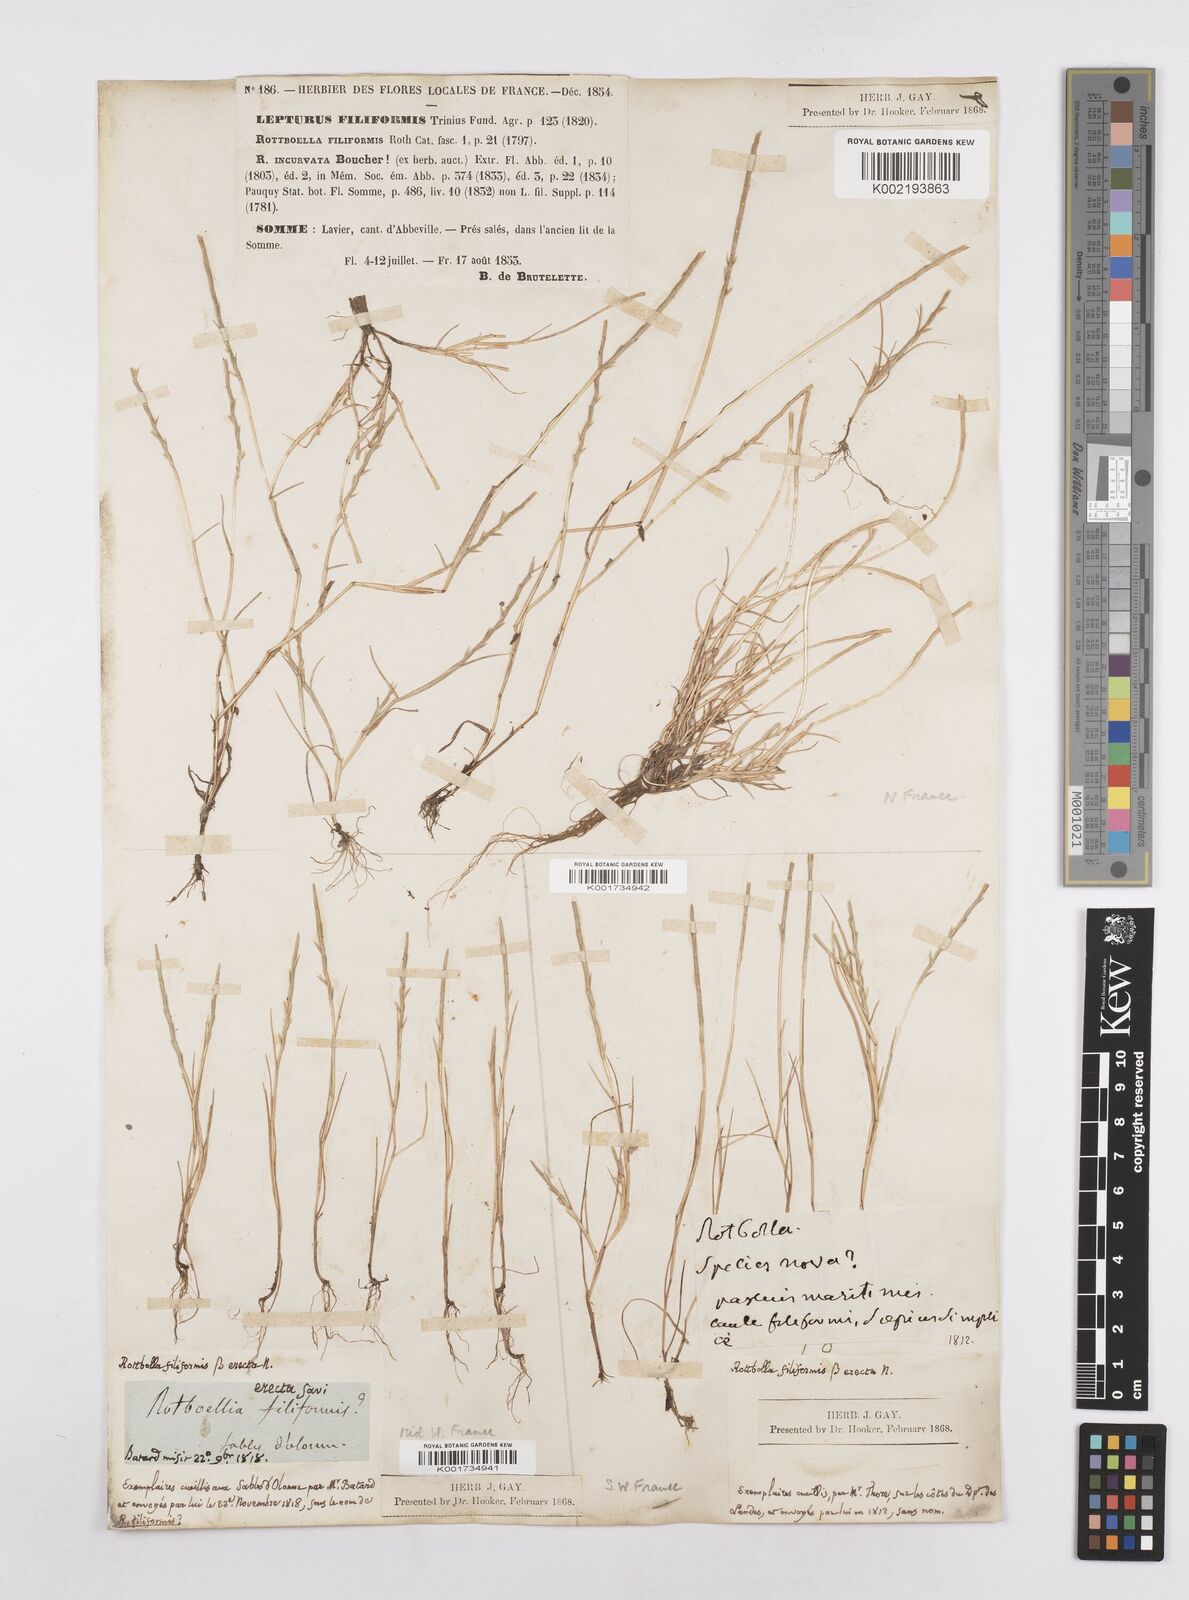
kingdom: Plantae
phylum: Tracheophyta
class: Liliopsida
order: Poales
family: Poaceae
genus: Parapholis
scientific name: Parapholis strigosa
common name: Hard-grass
